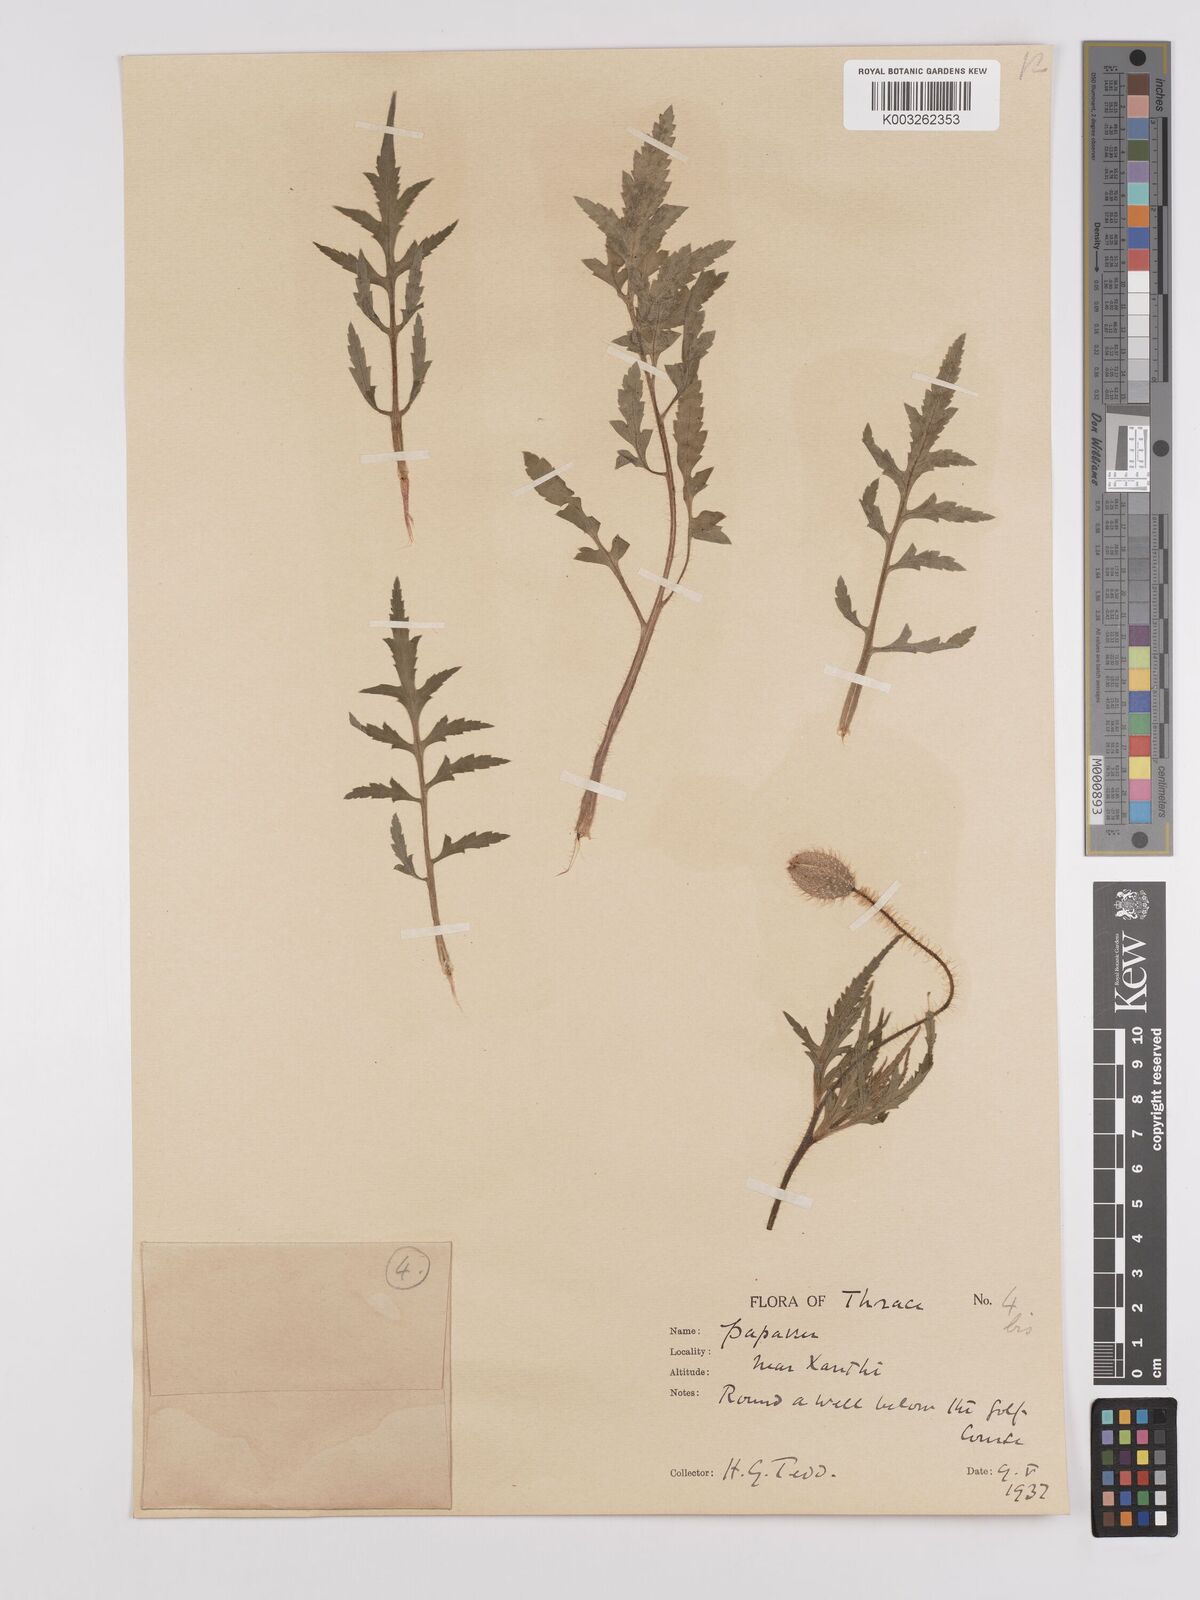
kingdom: Plantae
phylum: Tracheophyta
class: Magnoliopsida
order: Ranunculales
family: Papaveraceae
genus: Papaver
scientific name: Papaver rhoeas
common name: Corn poppy
